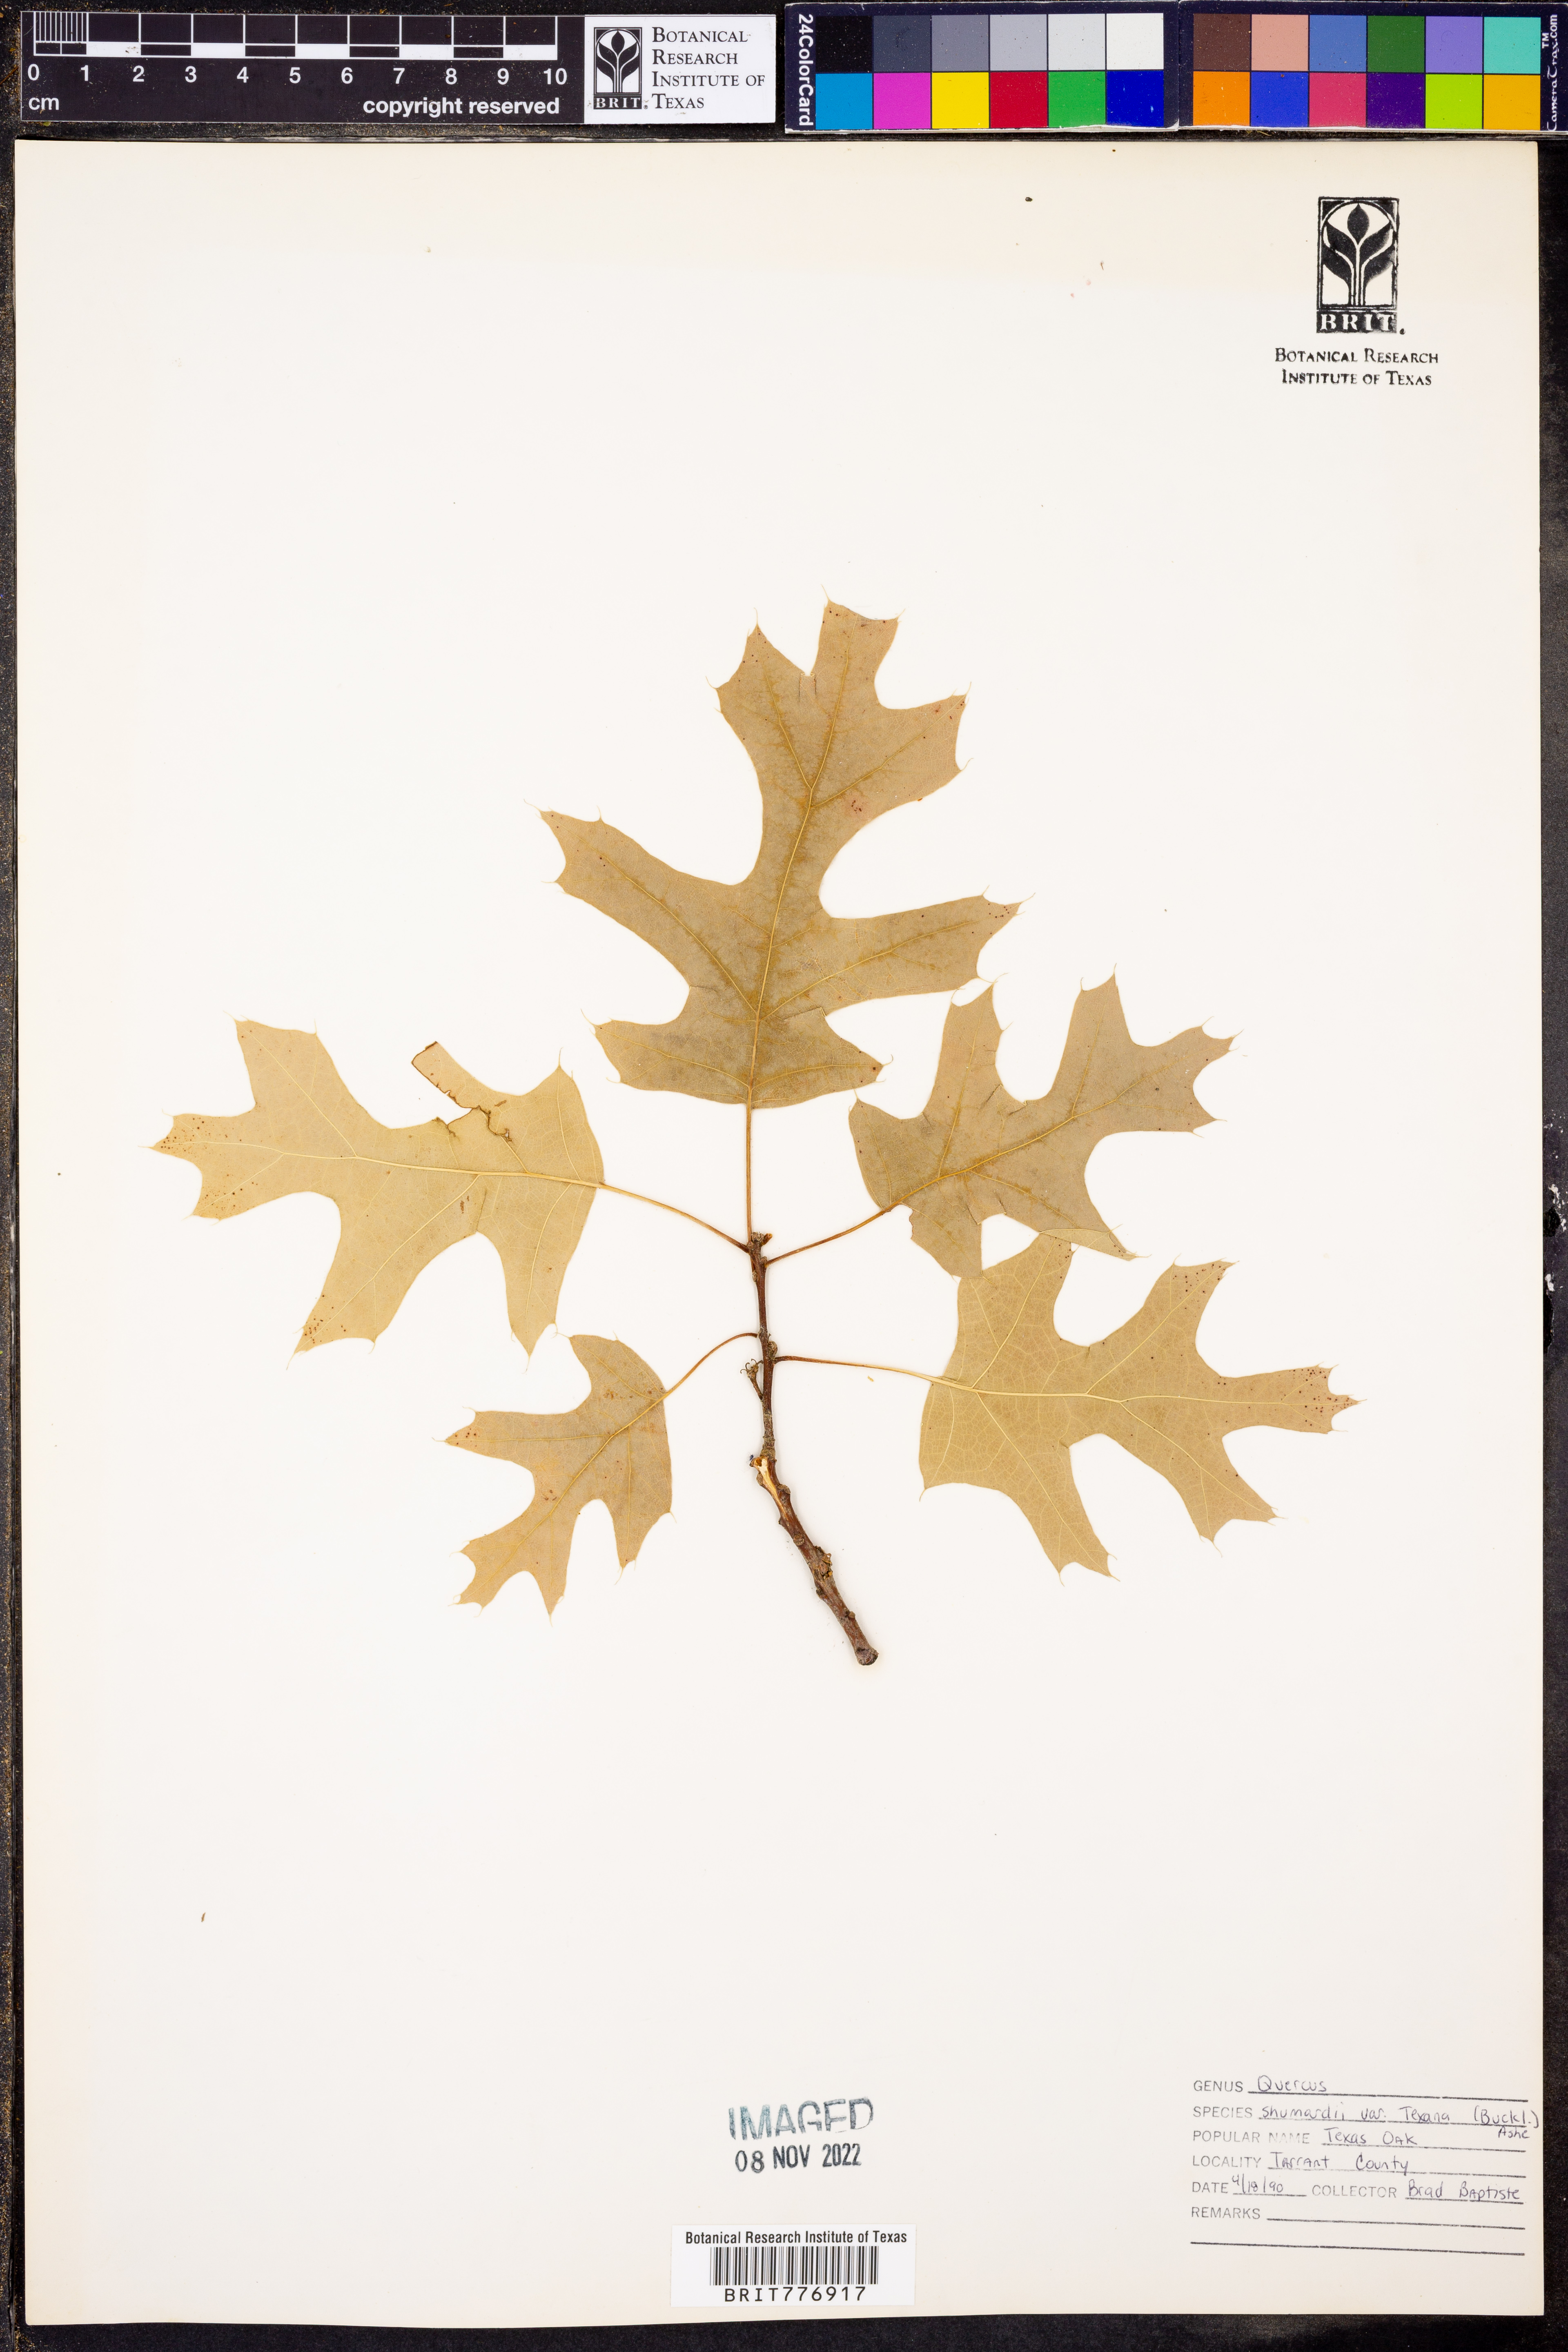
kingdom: Plantae
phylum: Tracheophyta
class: Magnoliopsida
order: Fagales
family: Fagaceae
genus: Quercus
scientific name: Quercus texana
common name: Nuttall oak
